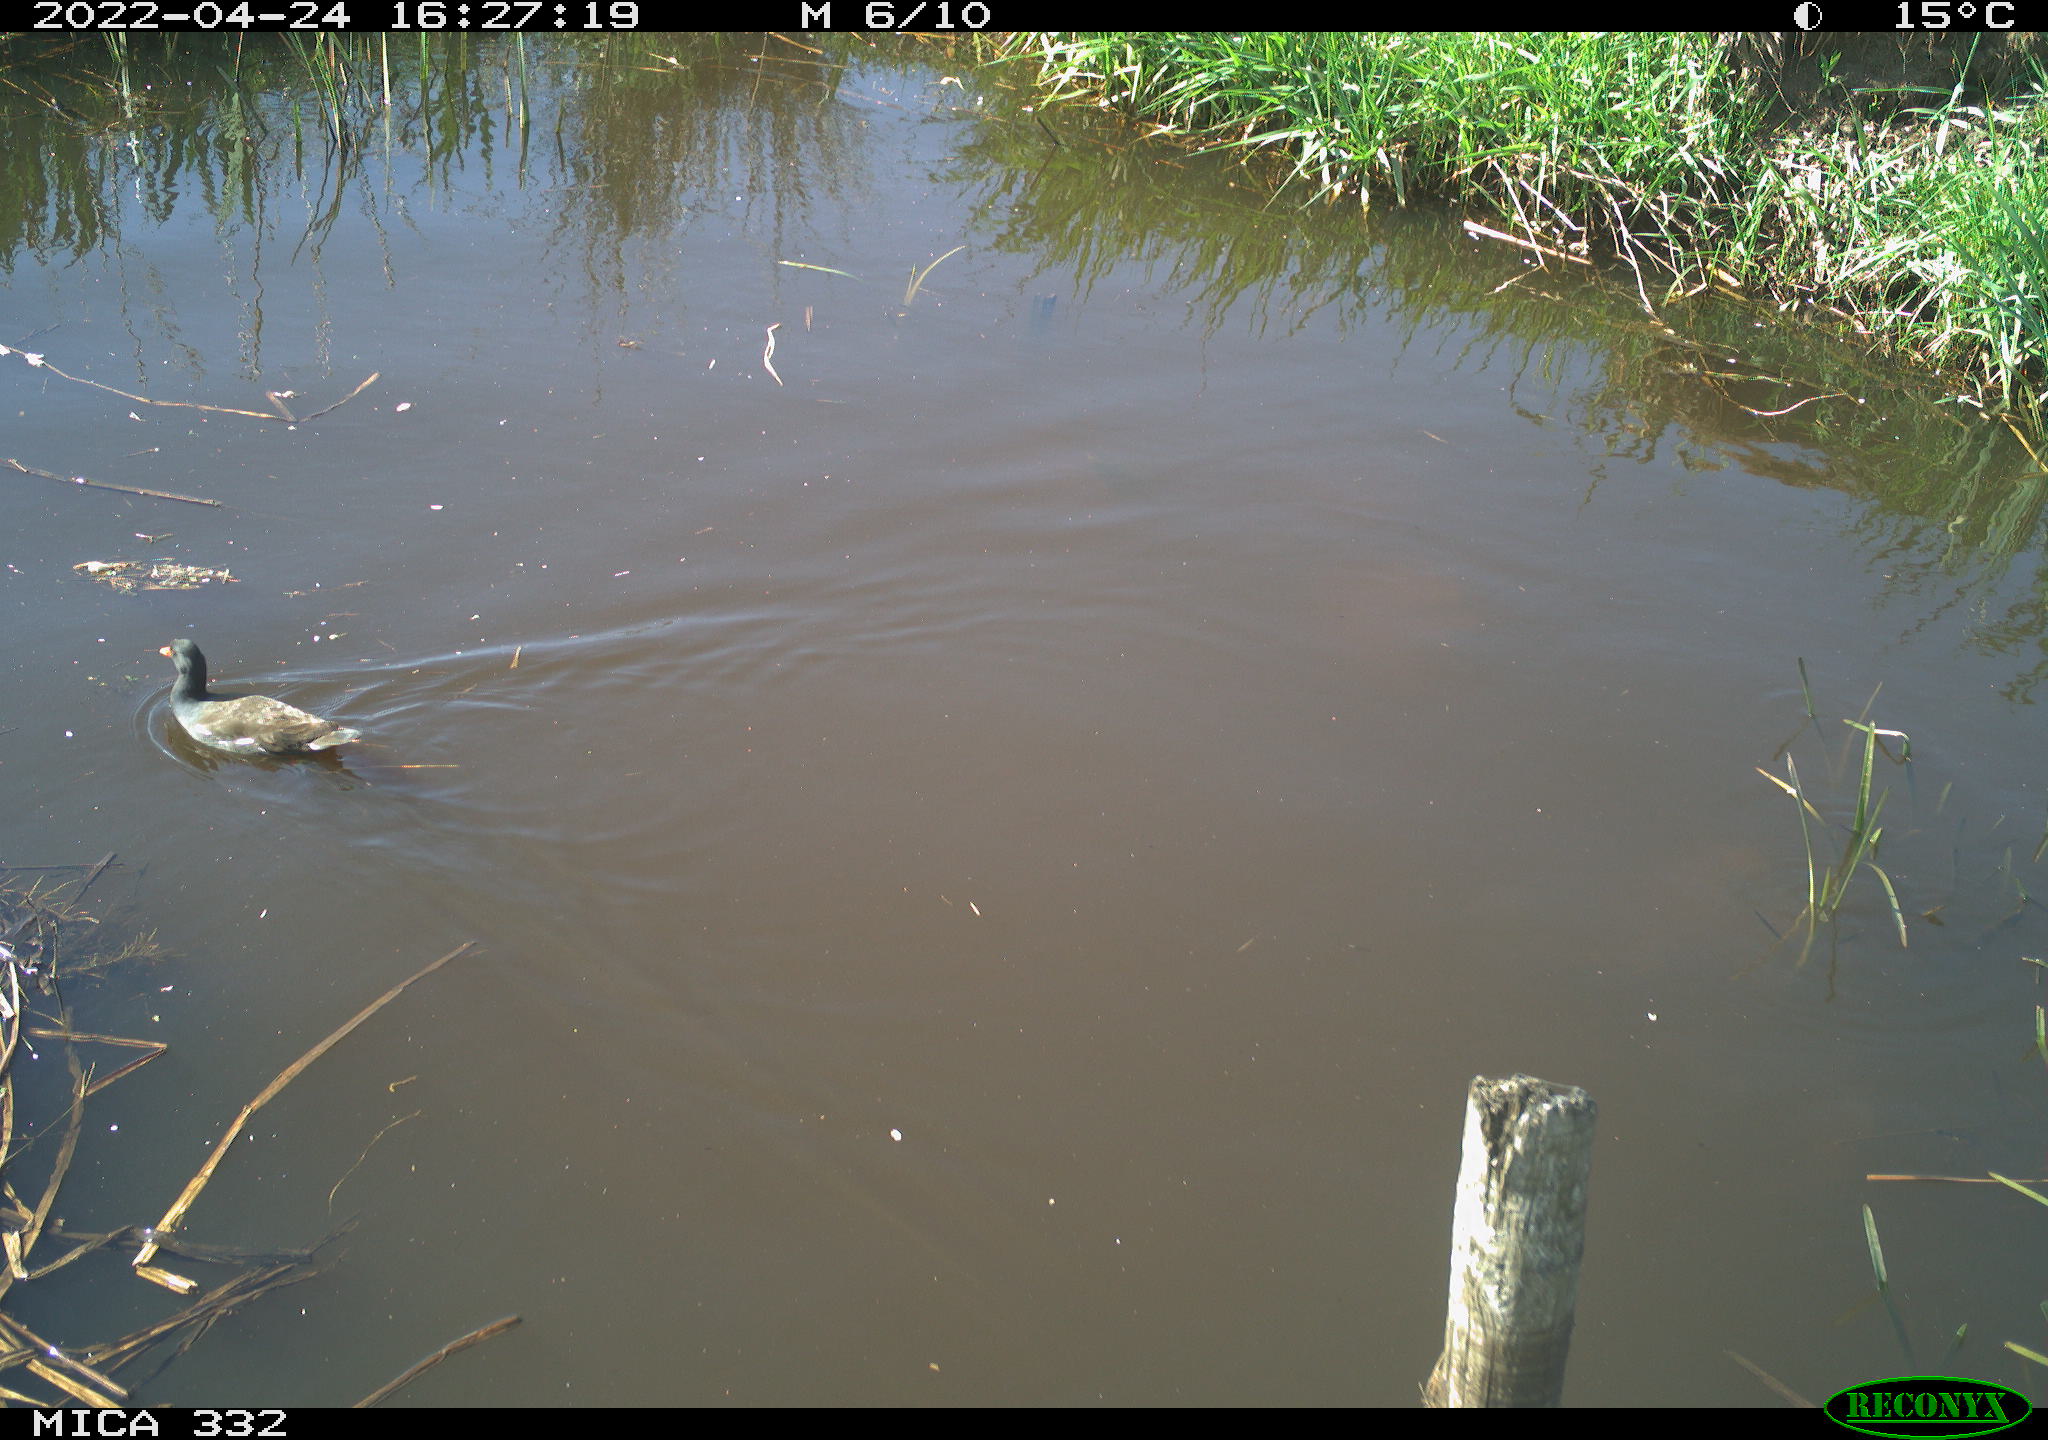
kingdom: Animalia
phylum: Chordata
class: Aves
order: Gruiformes
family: Rallidae
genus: Gallinula
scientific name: Gallinula chloropus
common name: Common moorhen
